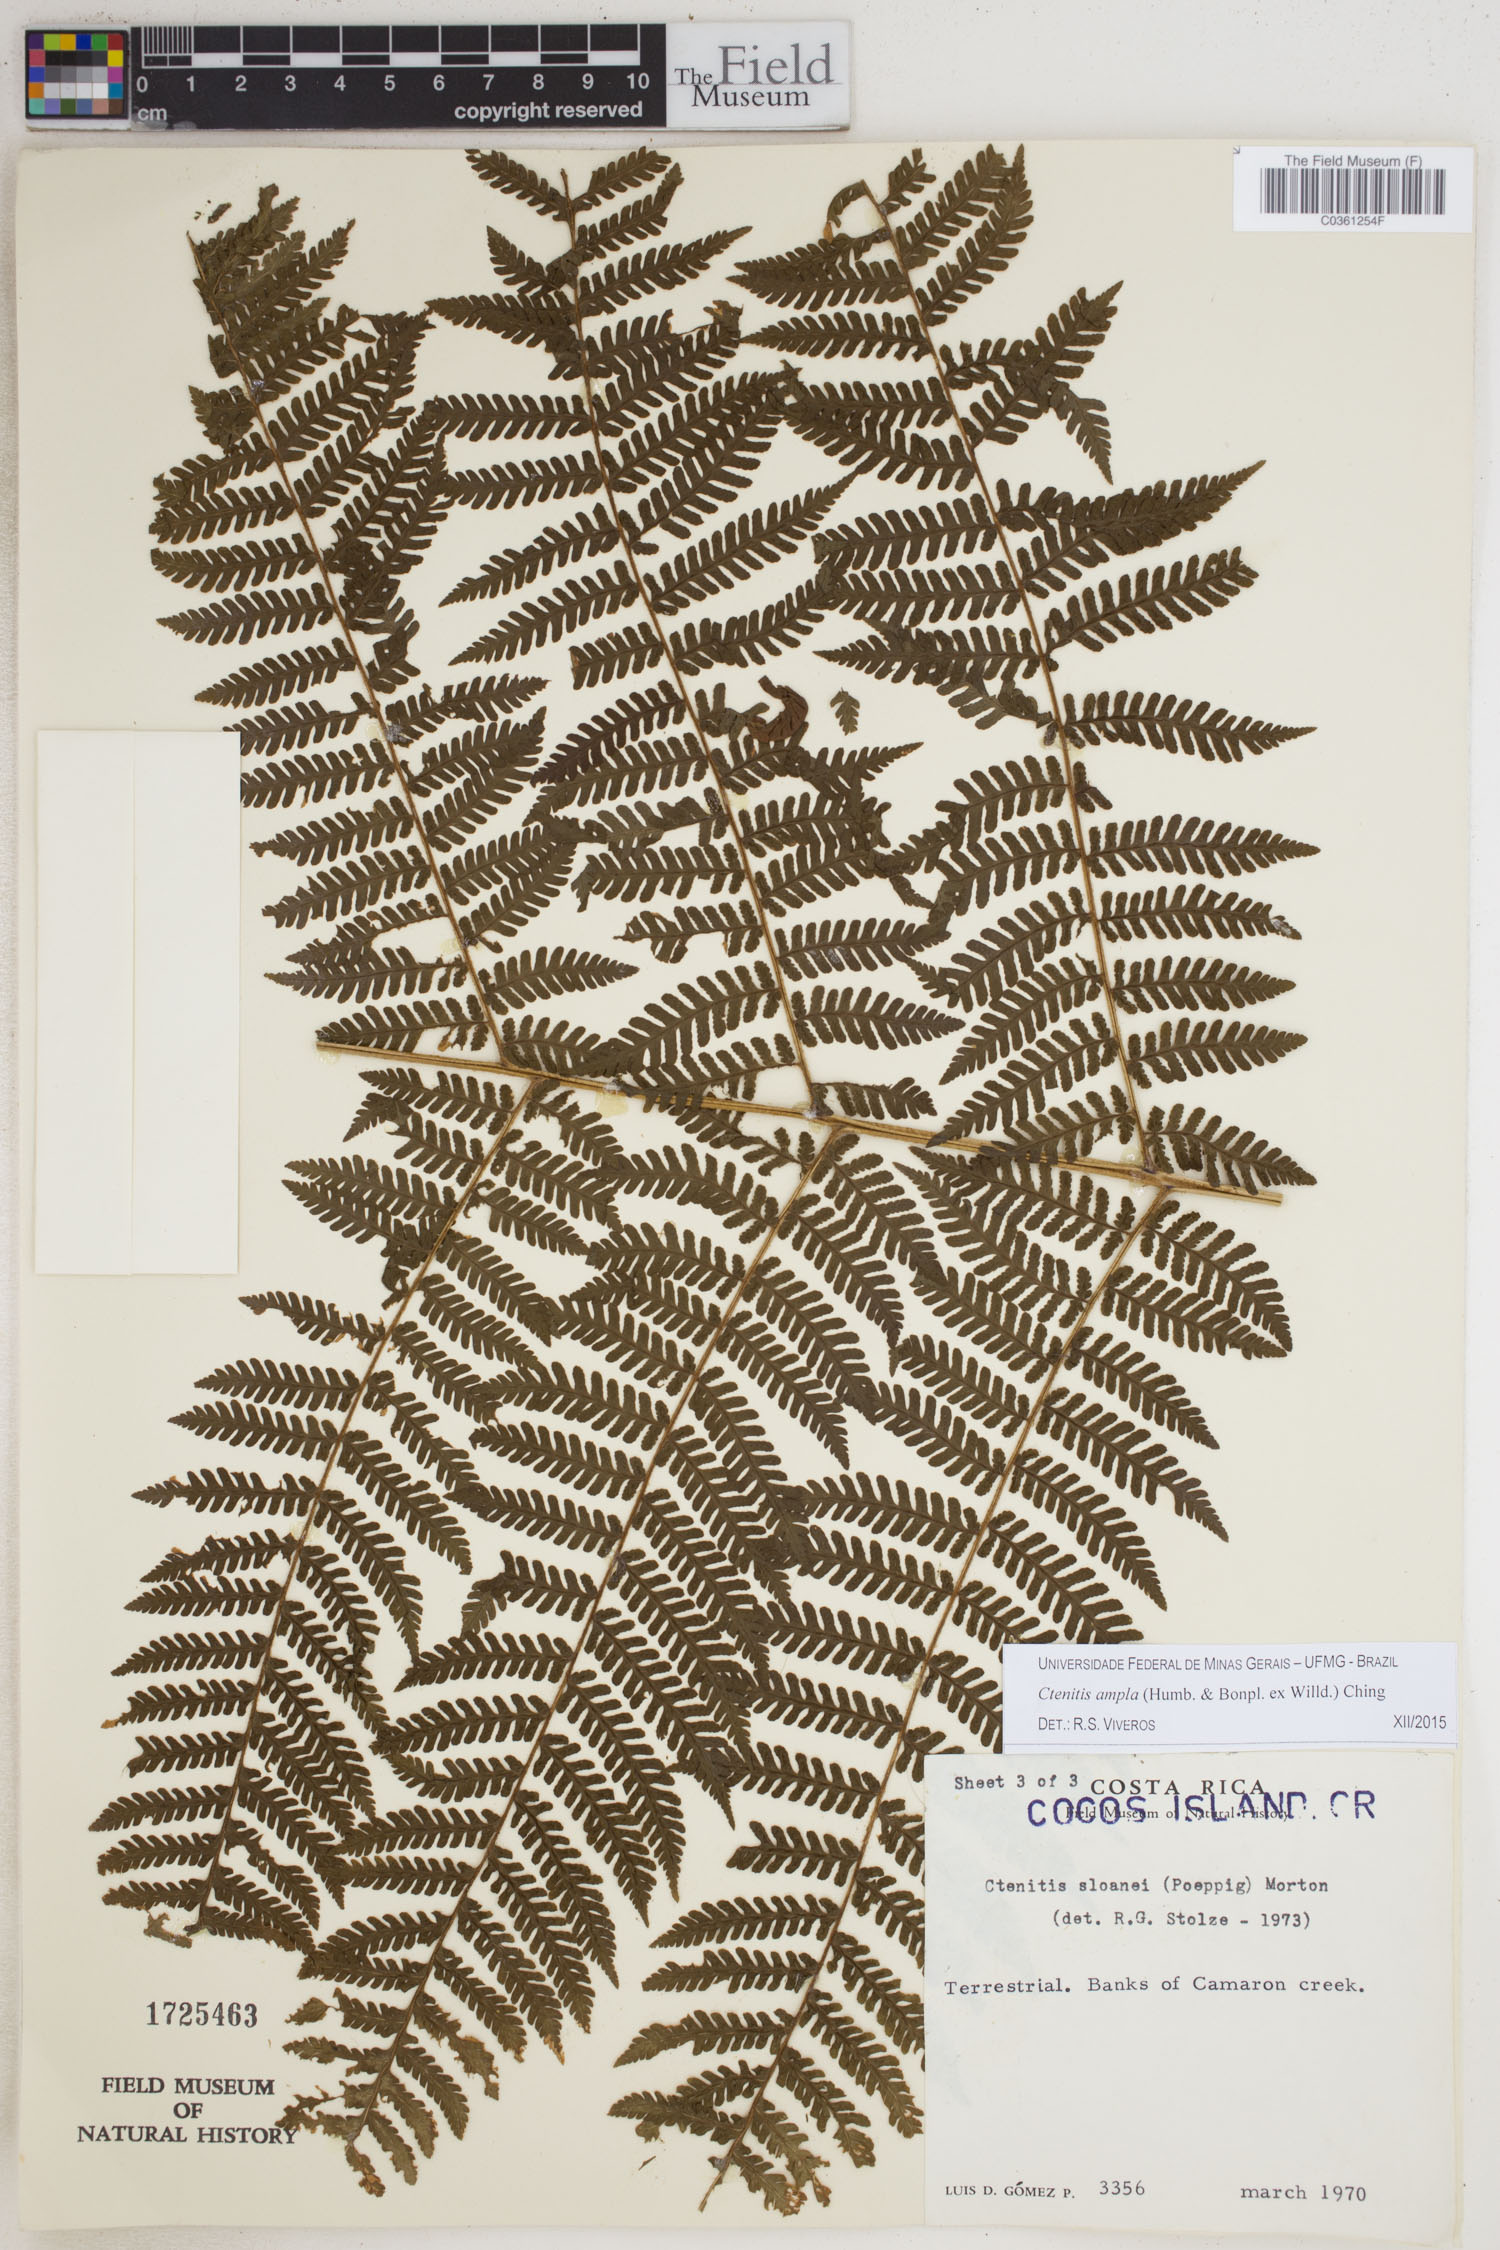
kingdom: Plantae
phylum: Tracheophyta
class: Polypodiopsida
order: Polypodiales
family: Dryopteridaceae
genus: Ctenitis
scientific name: Ctenitis sloanei
